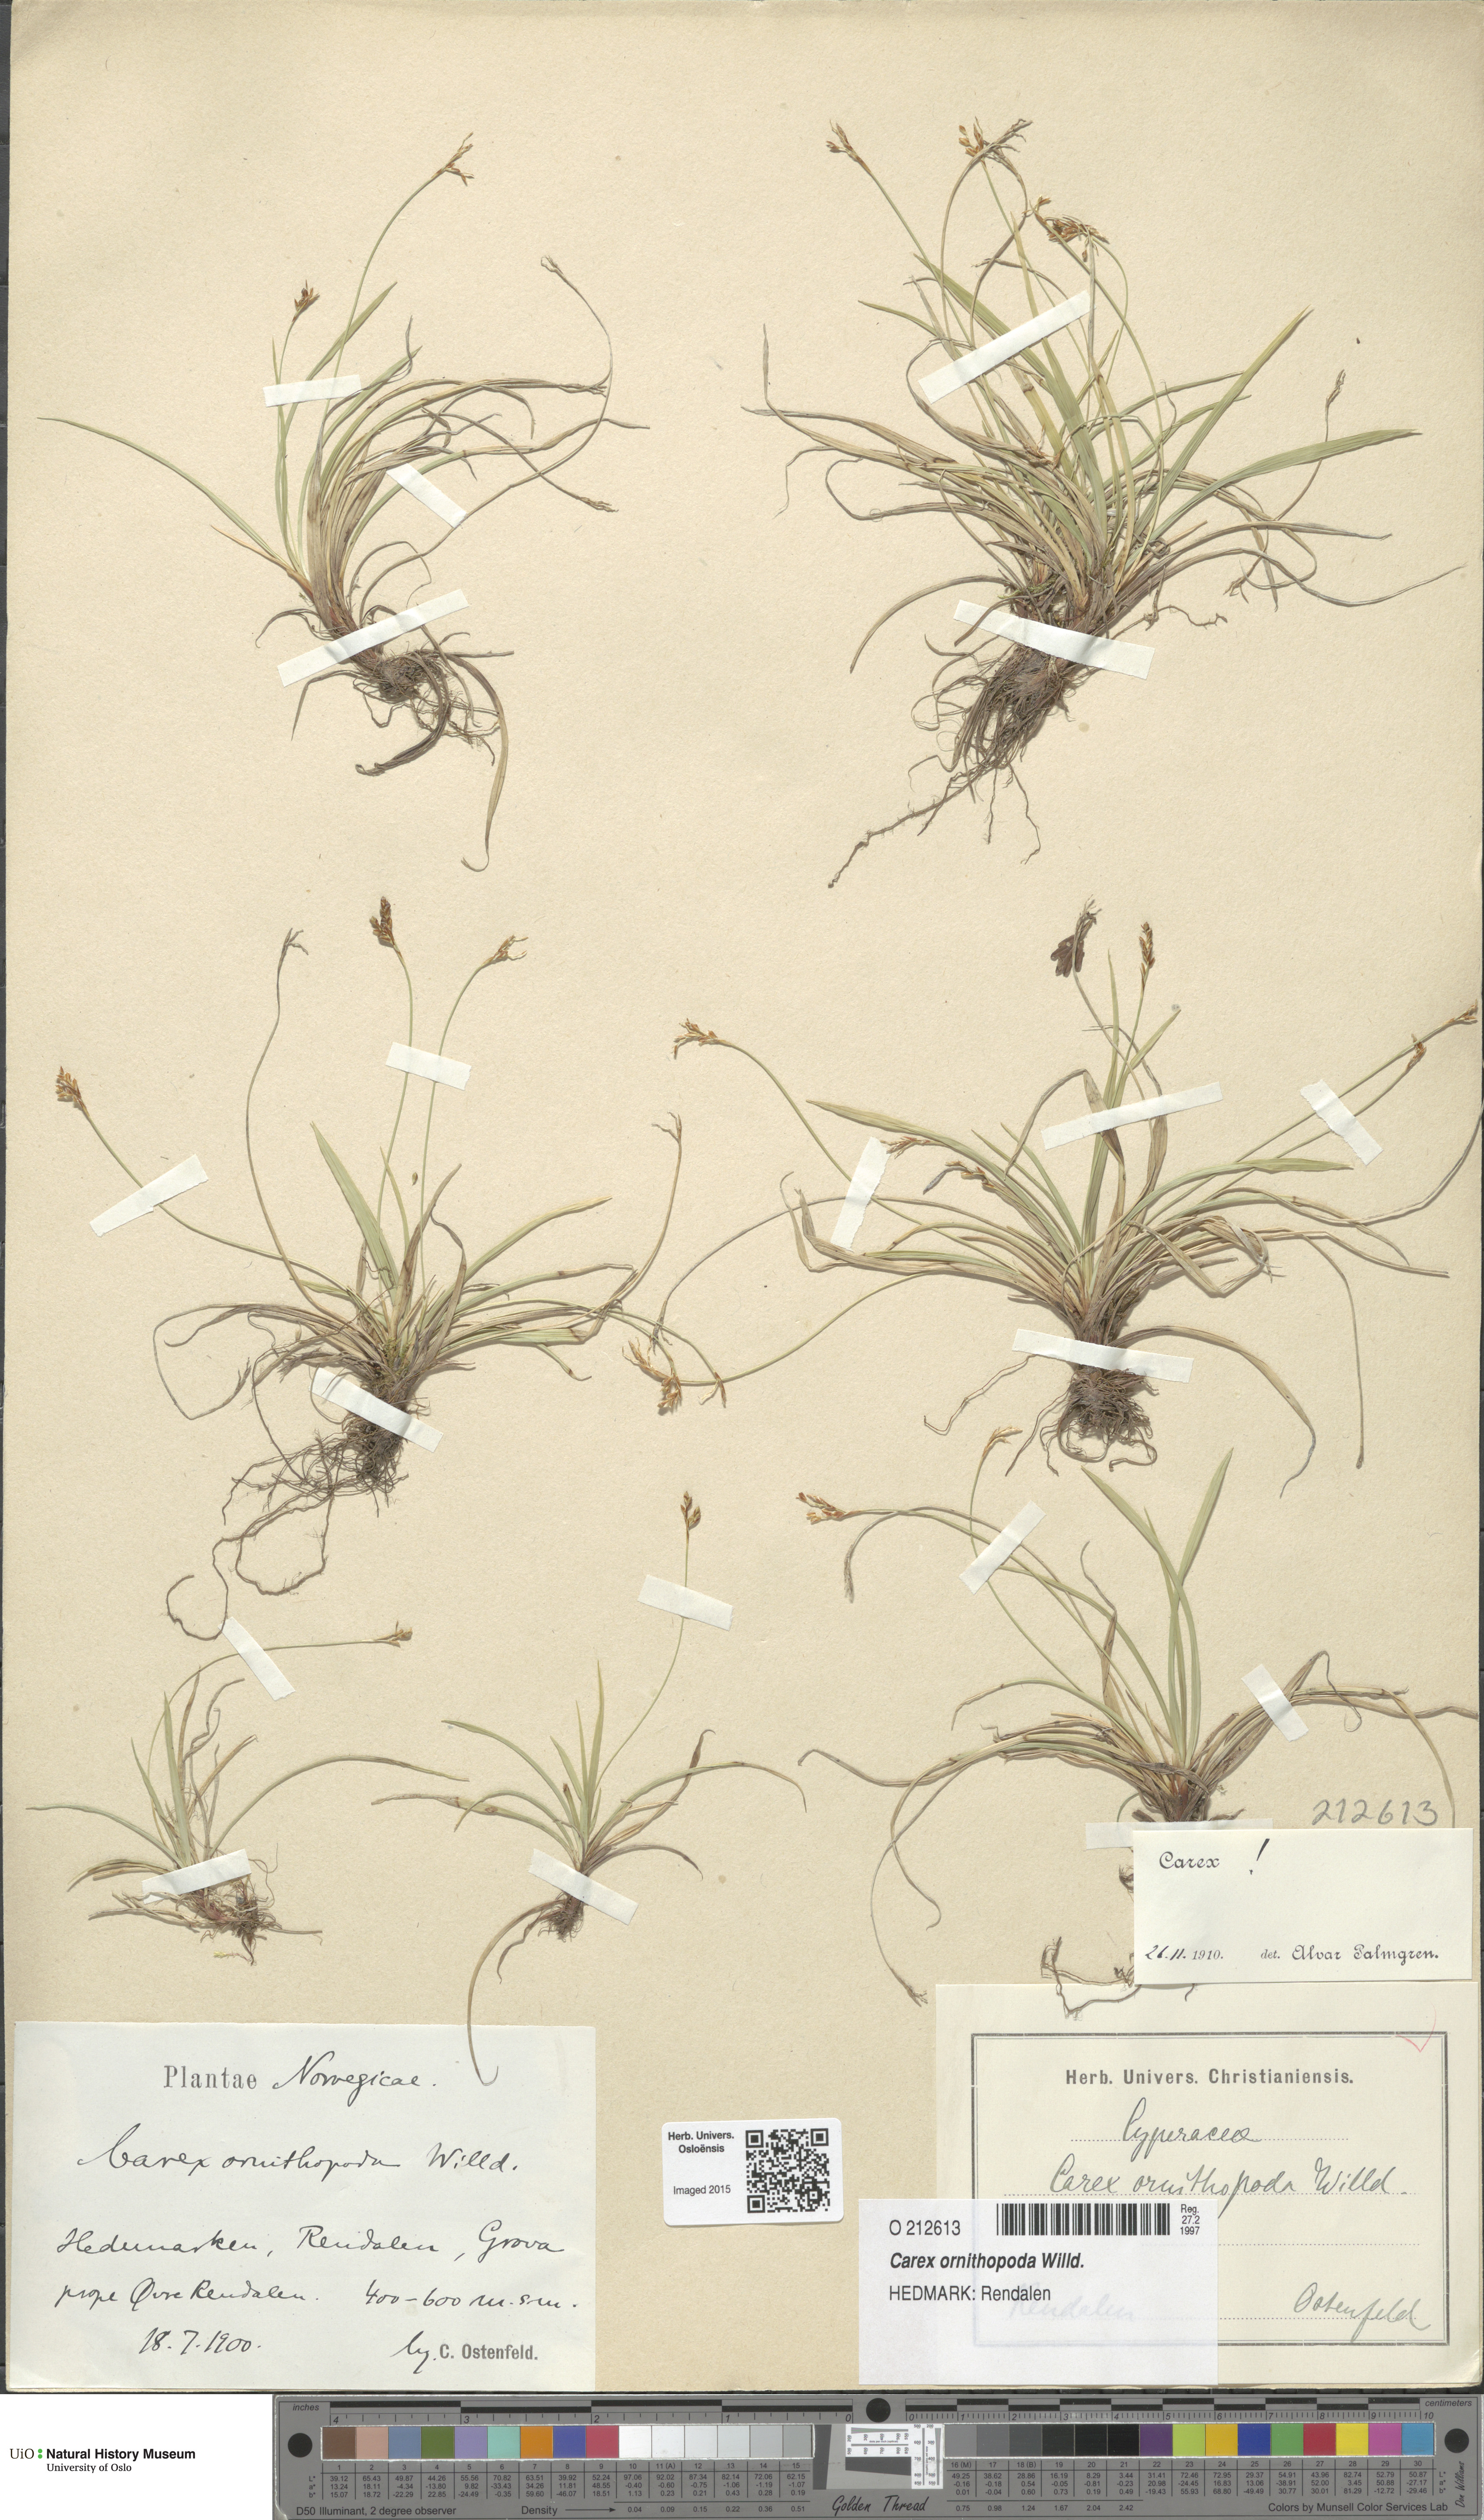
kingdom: Plantae
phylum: Tracheophyta
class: Liliopsida
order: Poales
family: Cyperaceae
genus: Carex
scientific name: Carex ornithopoda
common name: Bird's-foot sedge
